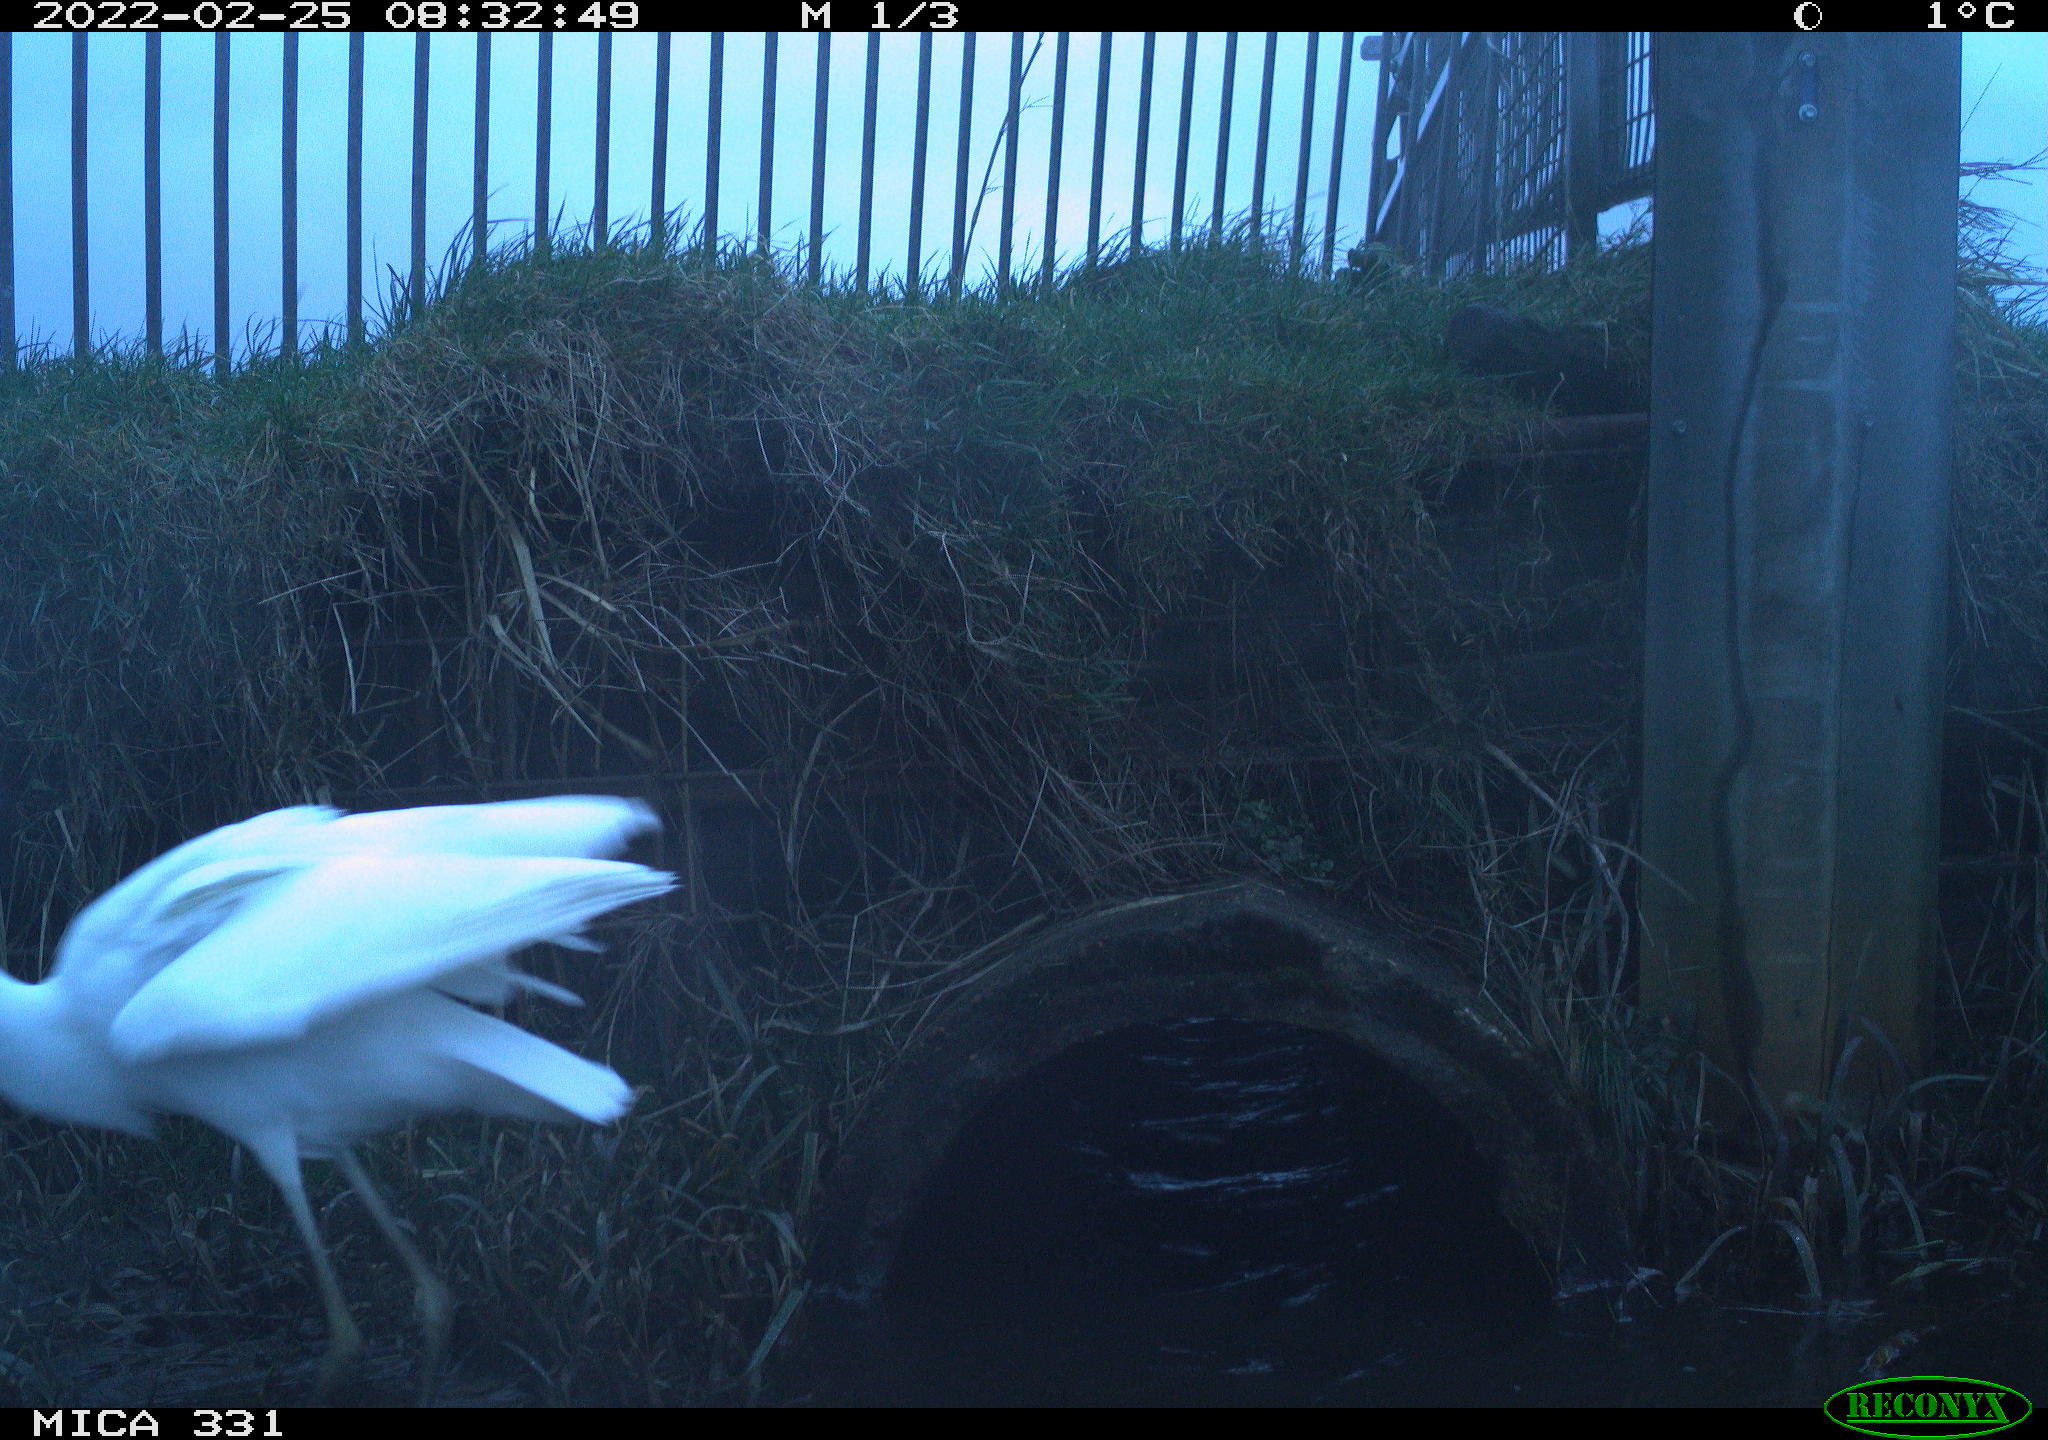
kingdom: Animalia
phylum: Chordata
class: Aves
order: Pelecaniformes
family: Ardeidae
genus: Ardea
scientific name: Ardea alba
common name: Great egret
